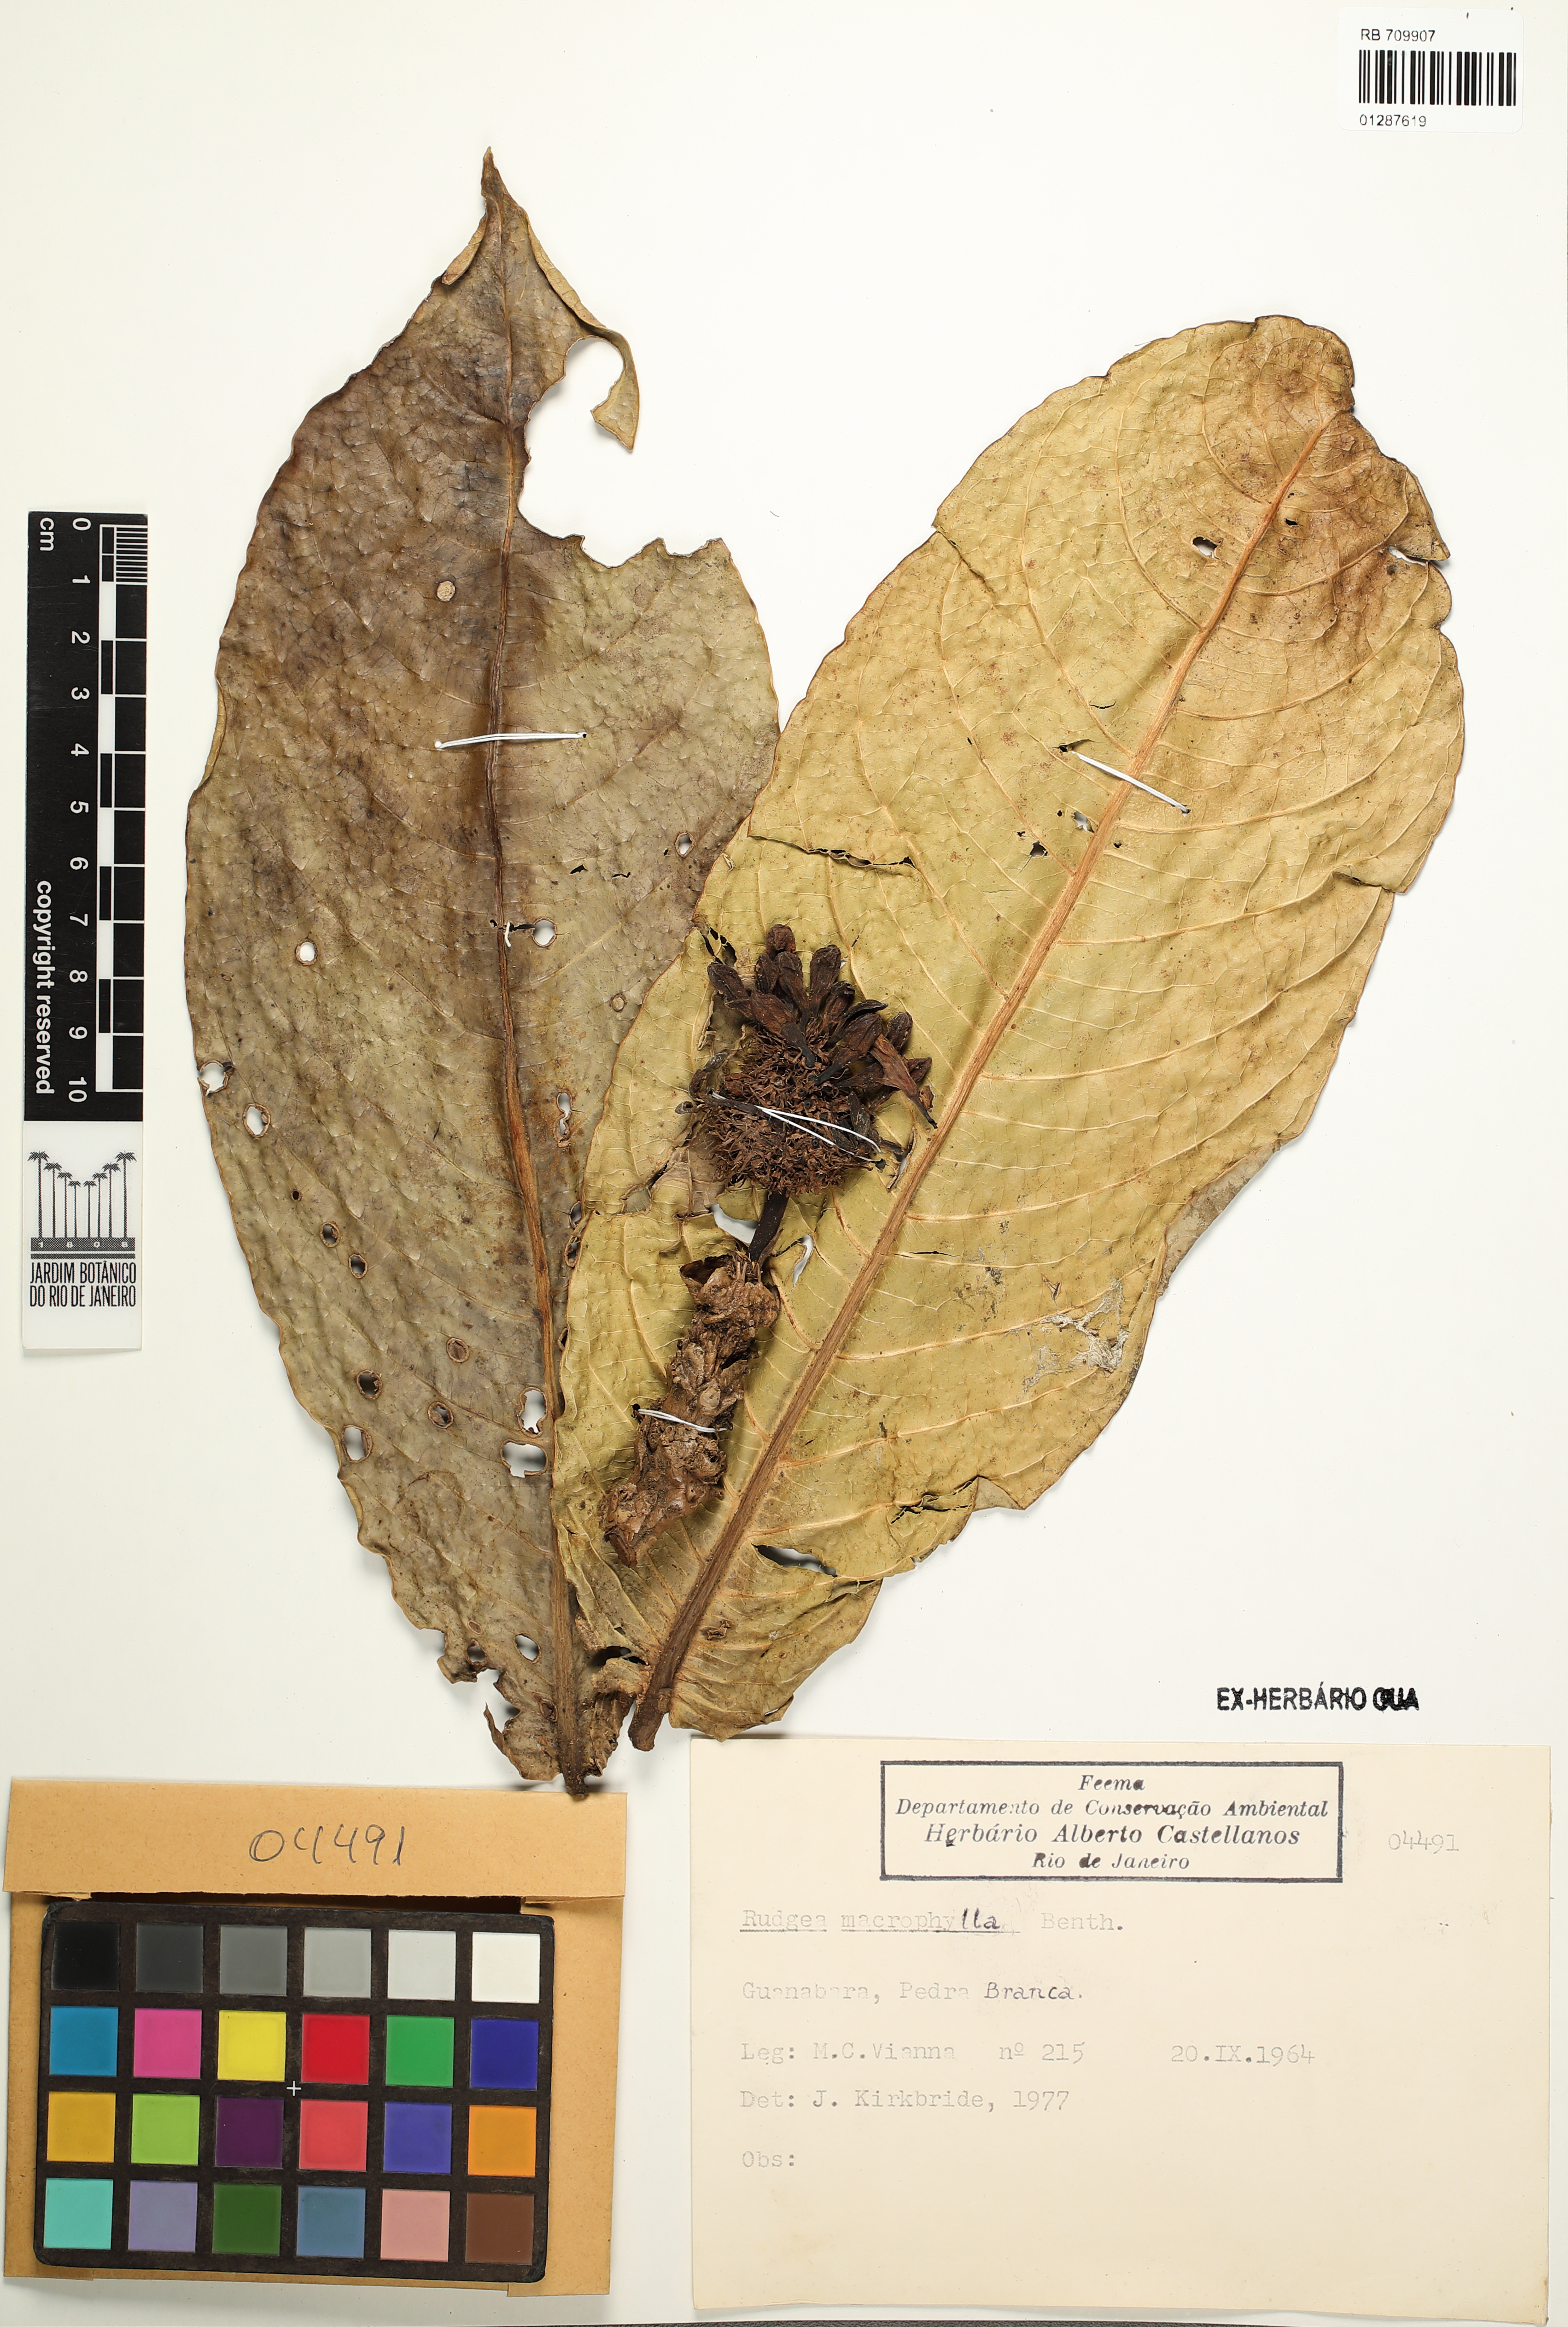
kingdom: Plantae
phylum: Tracheophyta
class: Magnoliopsida
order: Gentianales
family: Rubiaceae
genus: Rudgea
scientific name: Rudgea macrophylla
